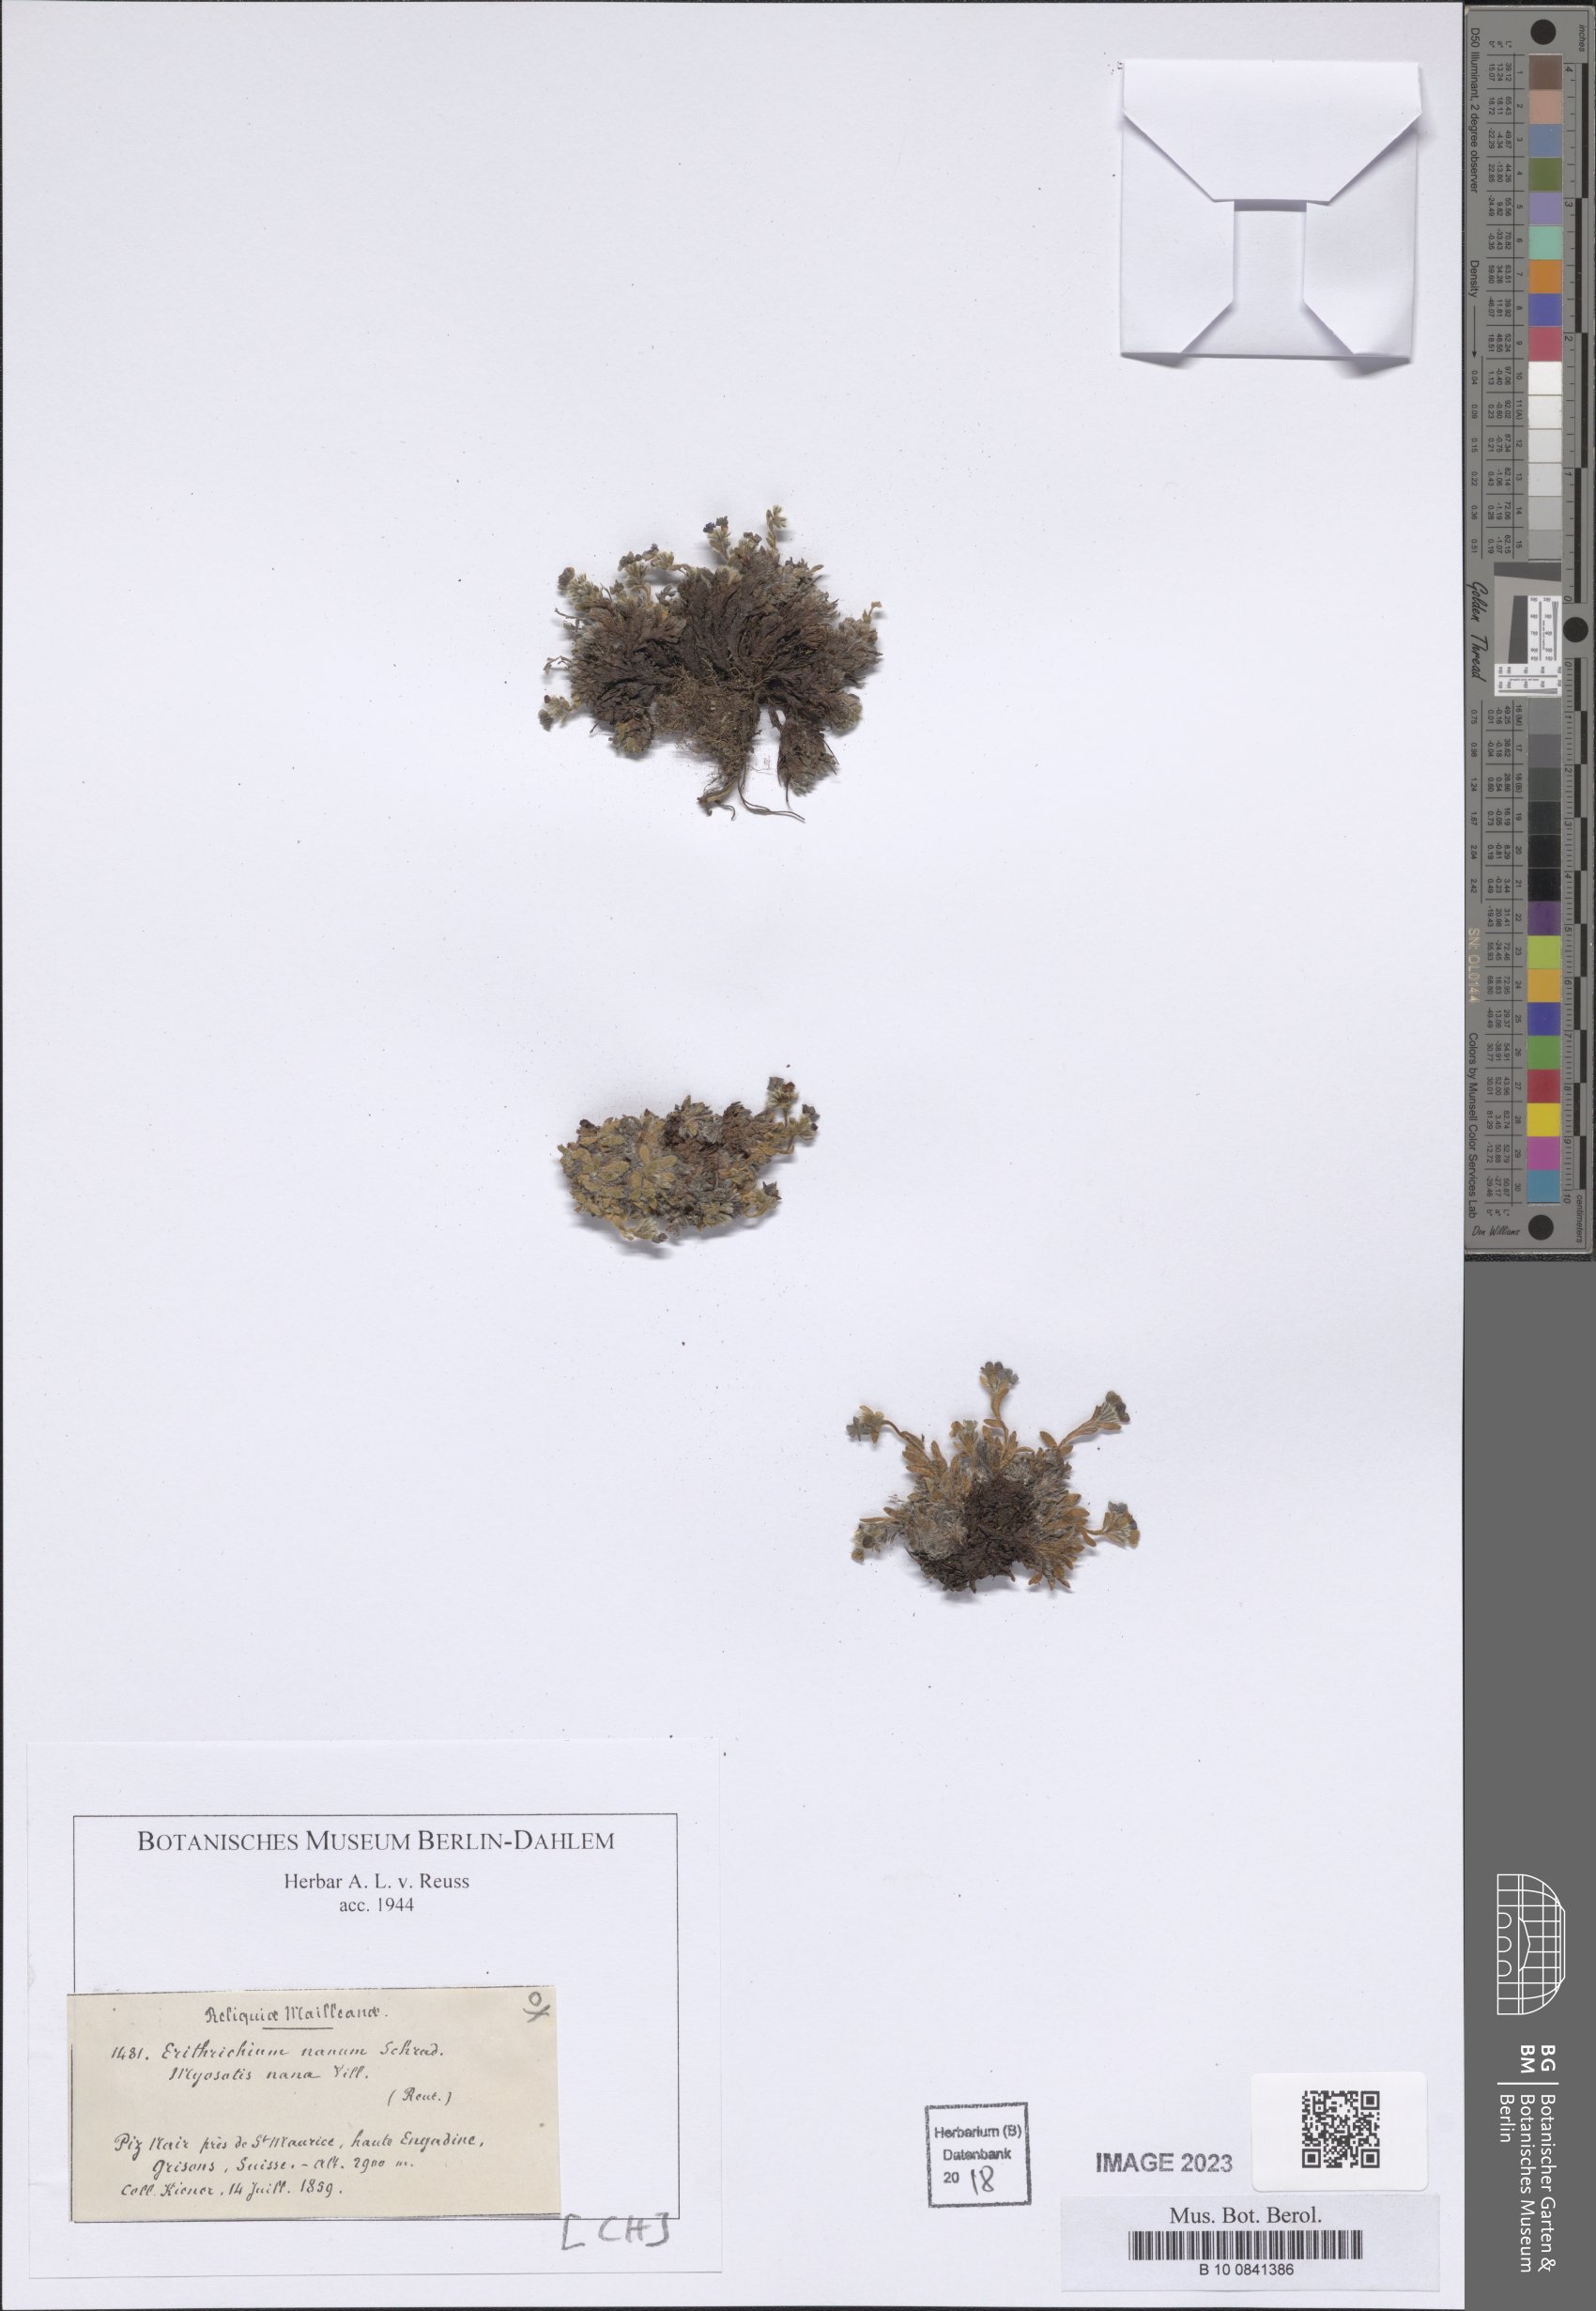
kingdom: Plantae
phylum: Tracheophyta
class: Magnoliopsida
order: Boraginales
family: Boraginaceae
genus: Eritrichium
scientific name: Eritrichium nanum
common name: King-of-the-alps
